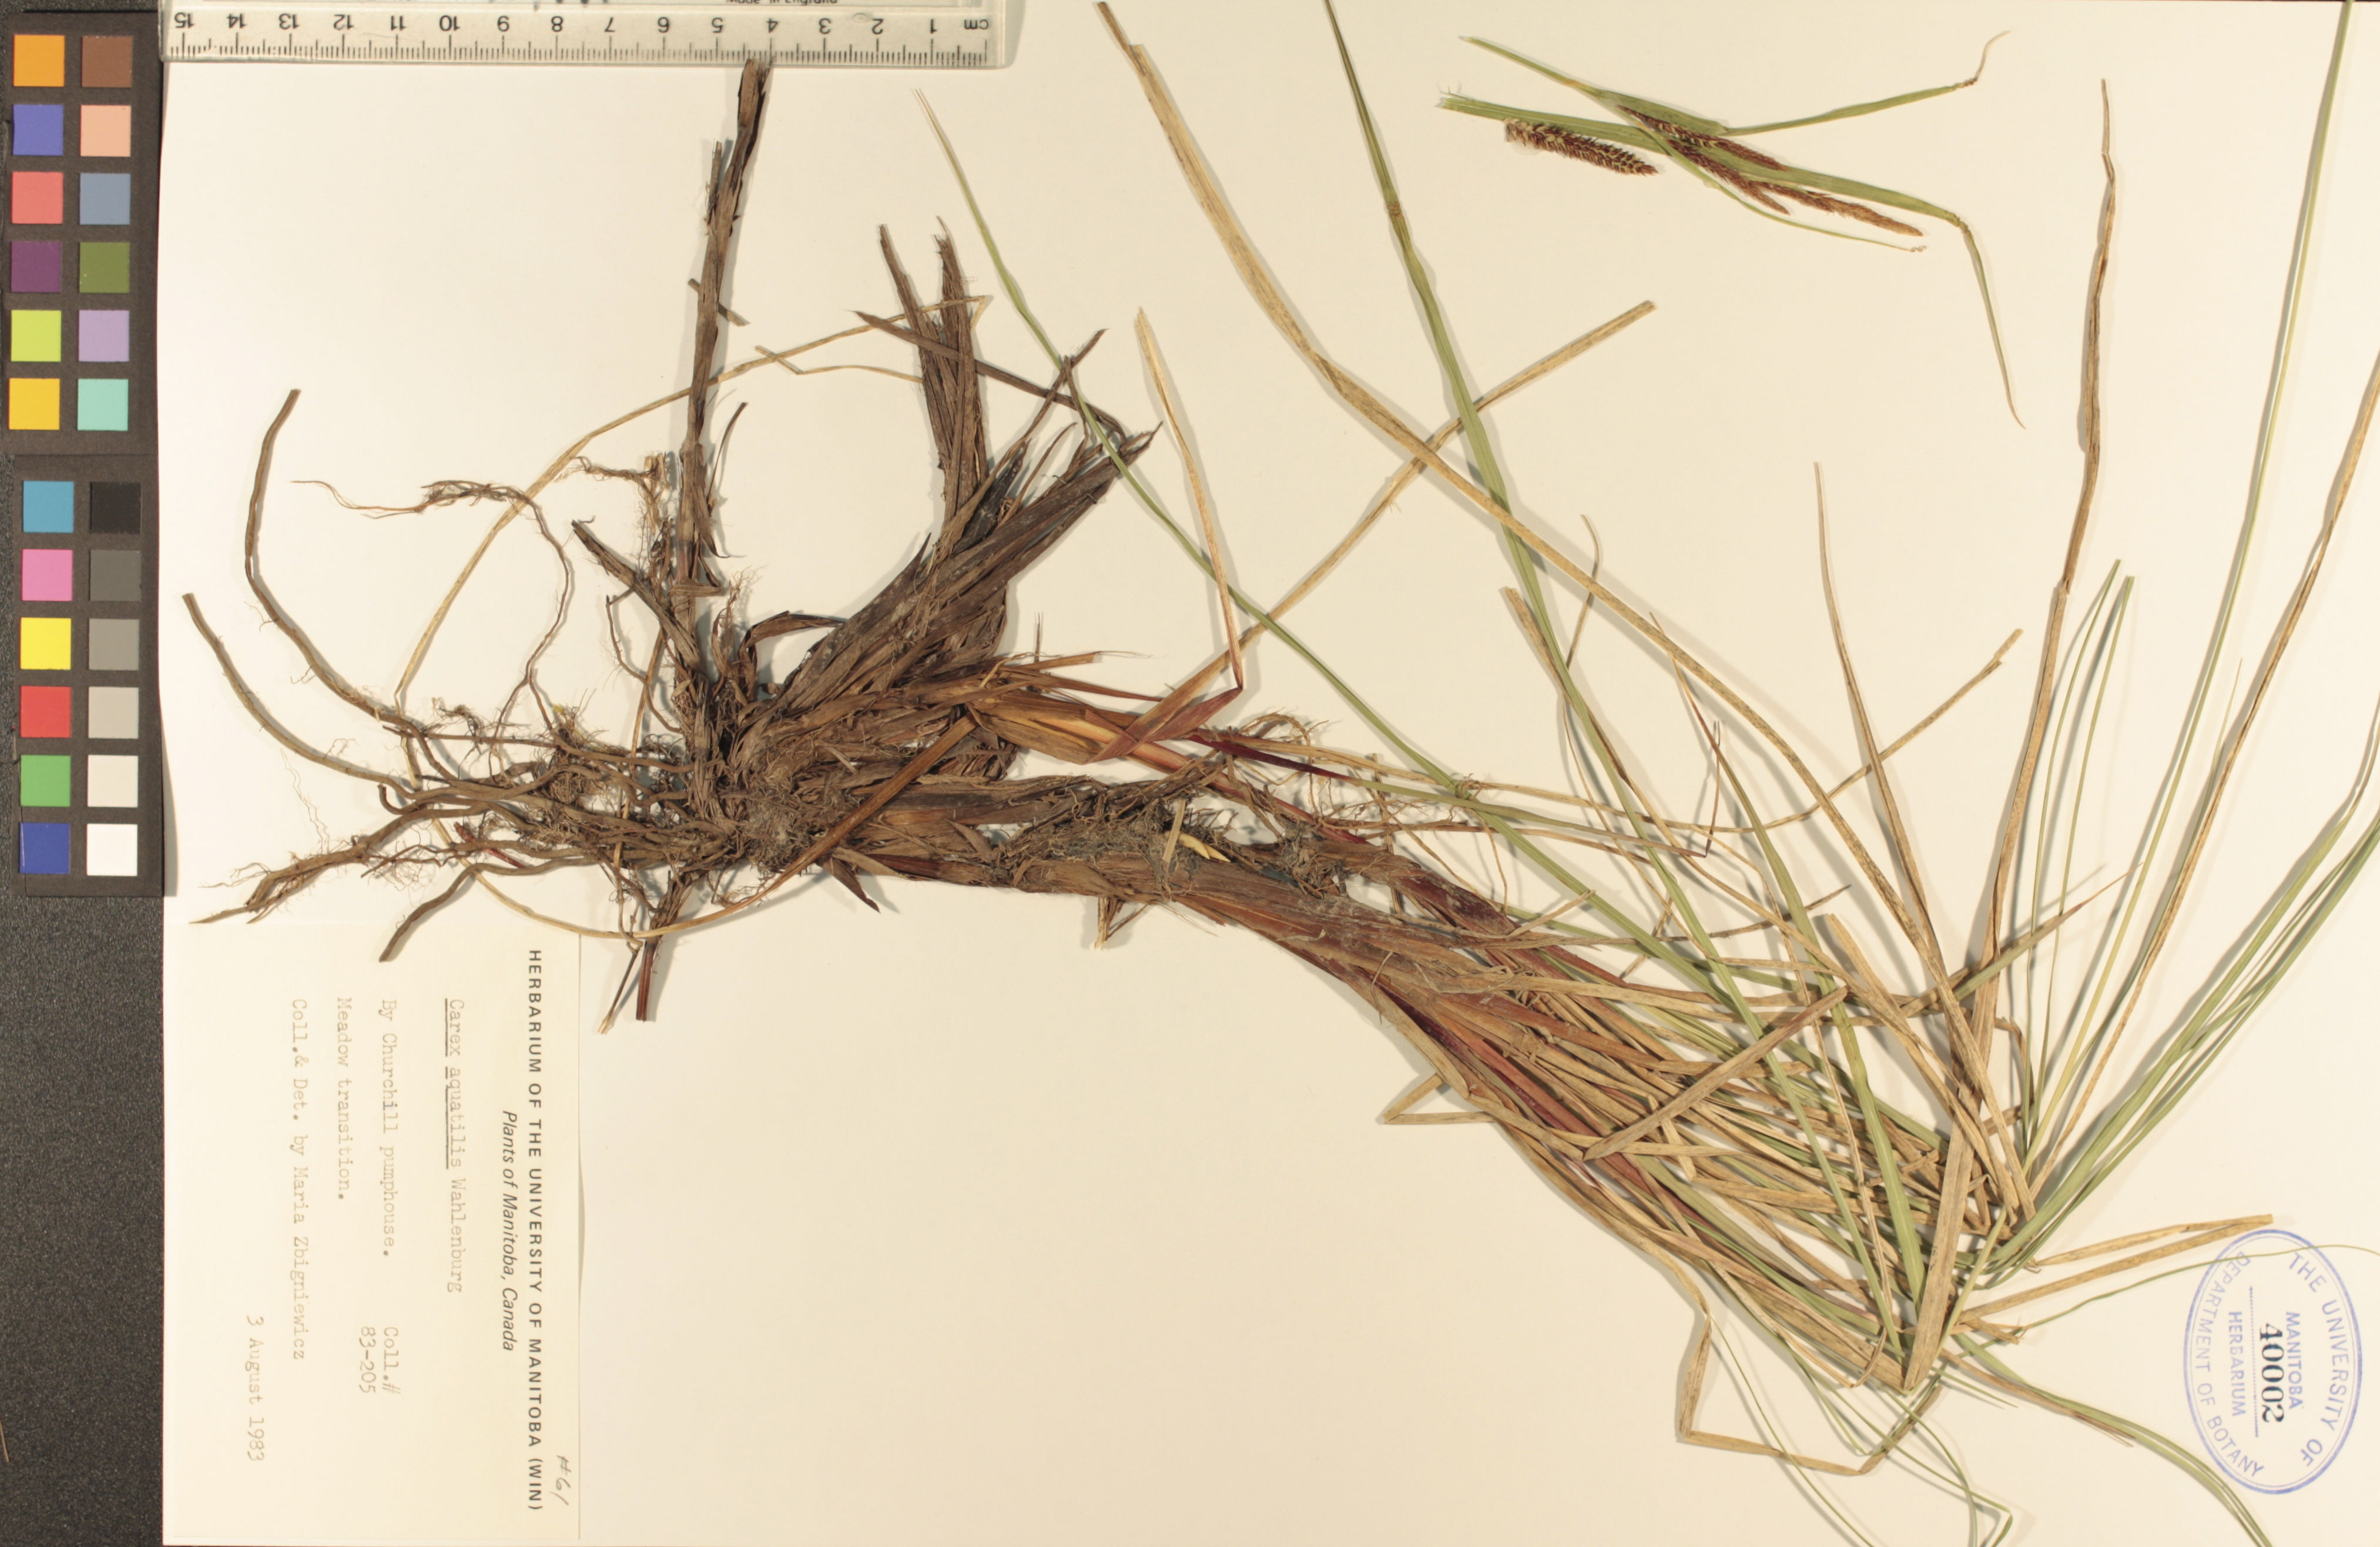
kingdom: Plantae
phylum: Tracheophyta
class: Liliopsida
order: Poales
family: Cyperaceae
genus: Carex
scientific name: Carex aquatilis
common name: Water sedge
